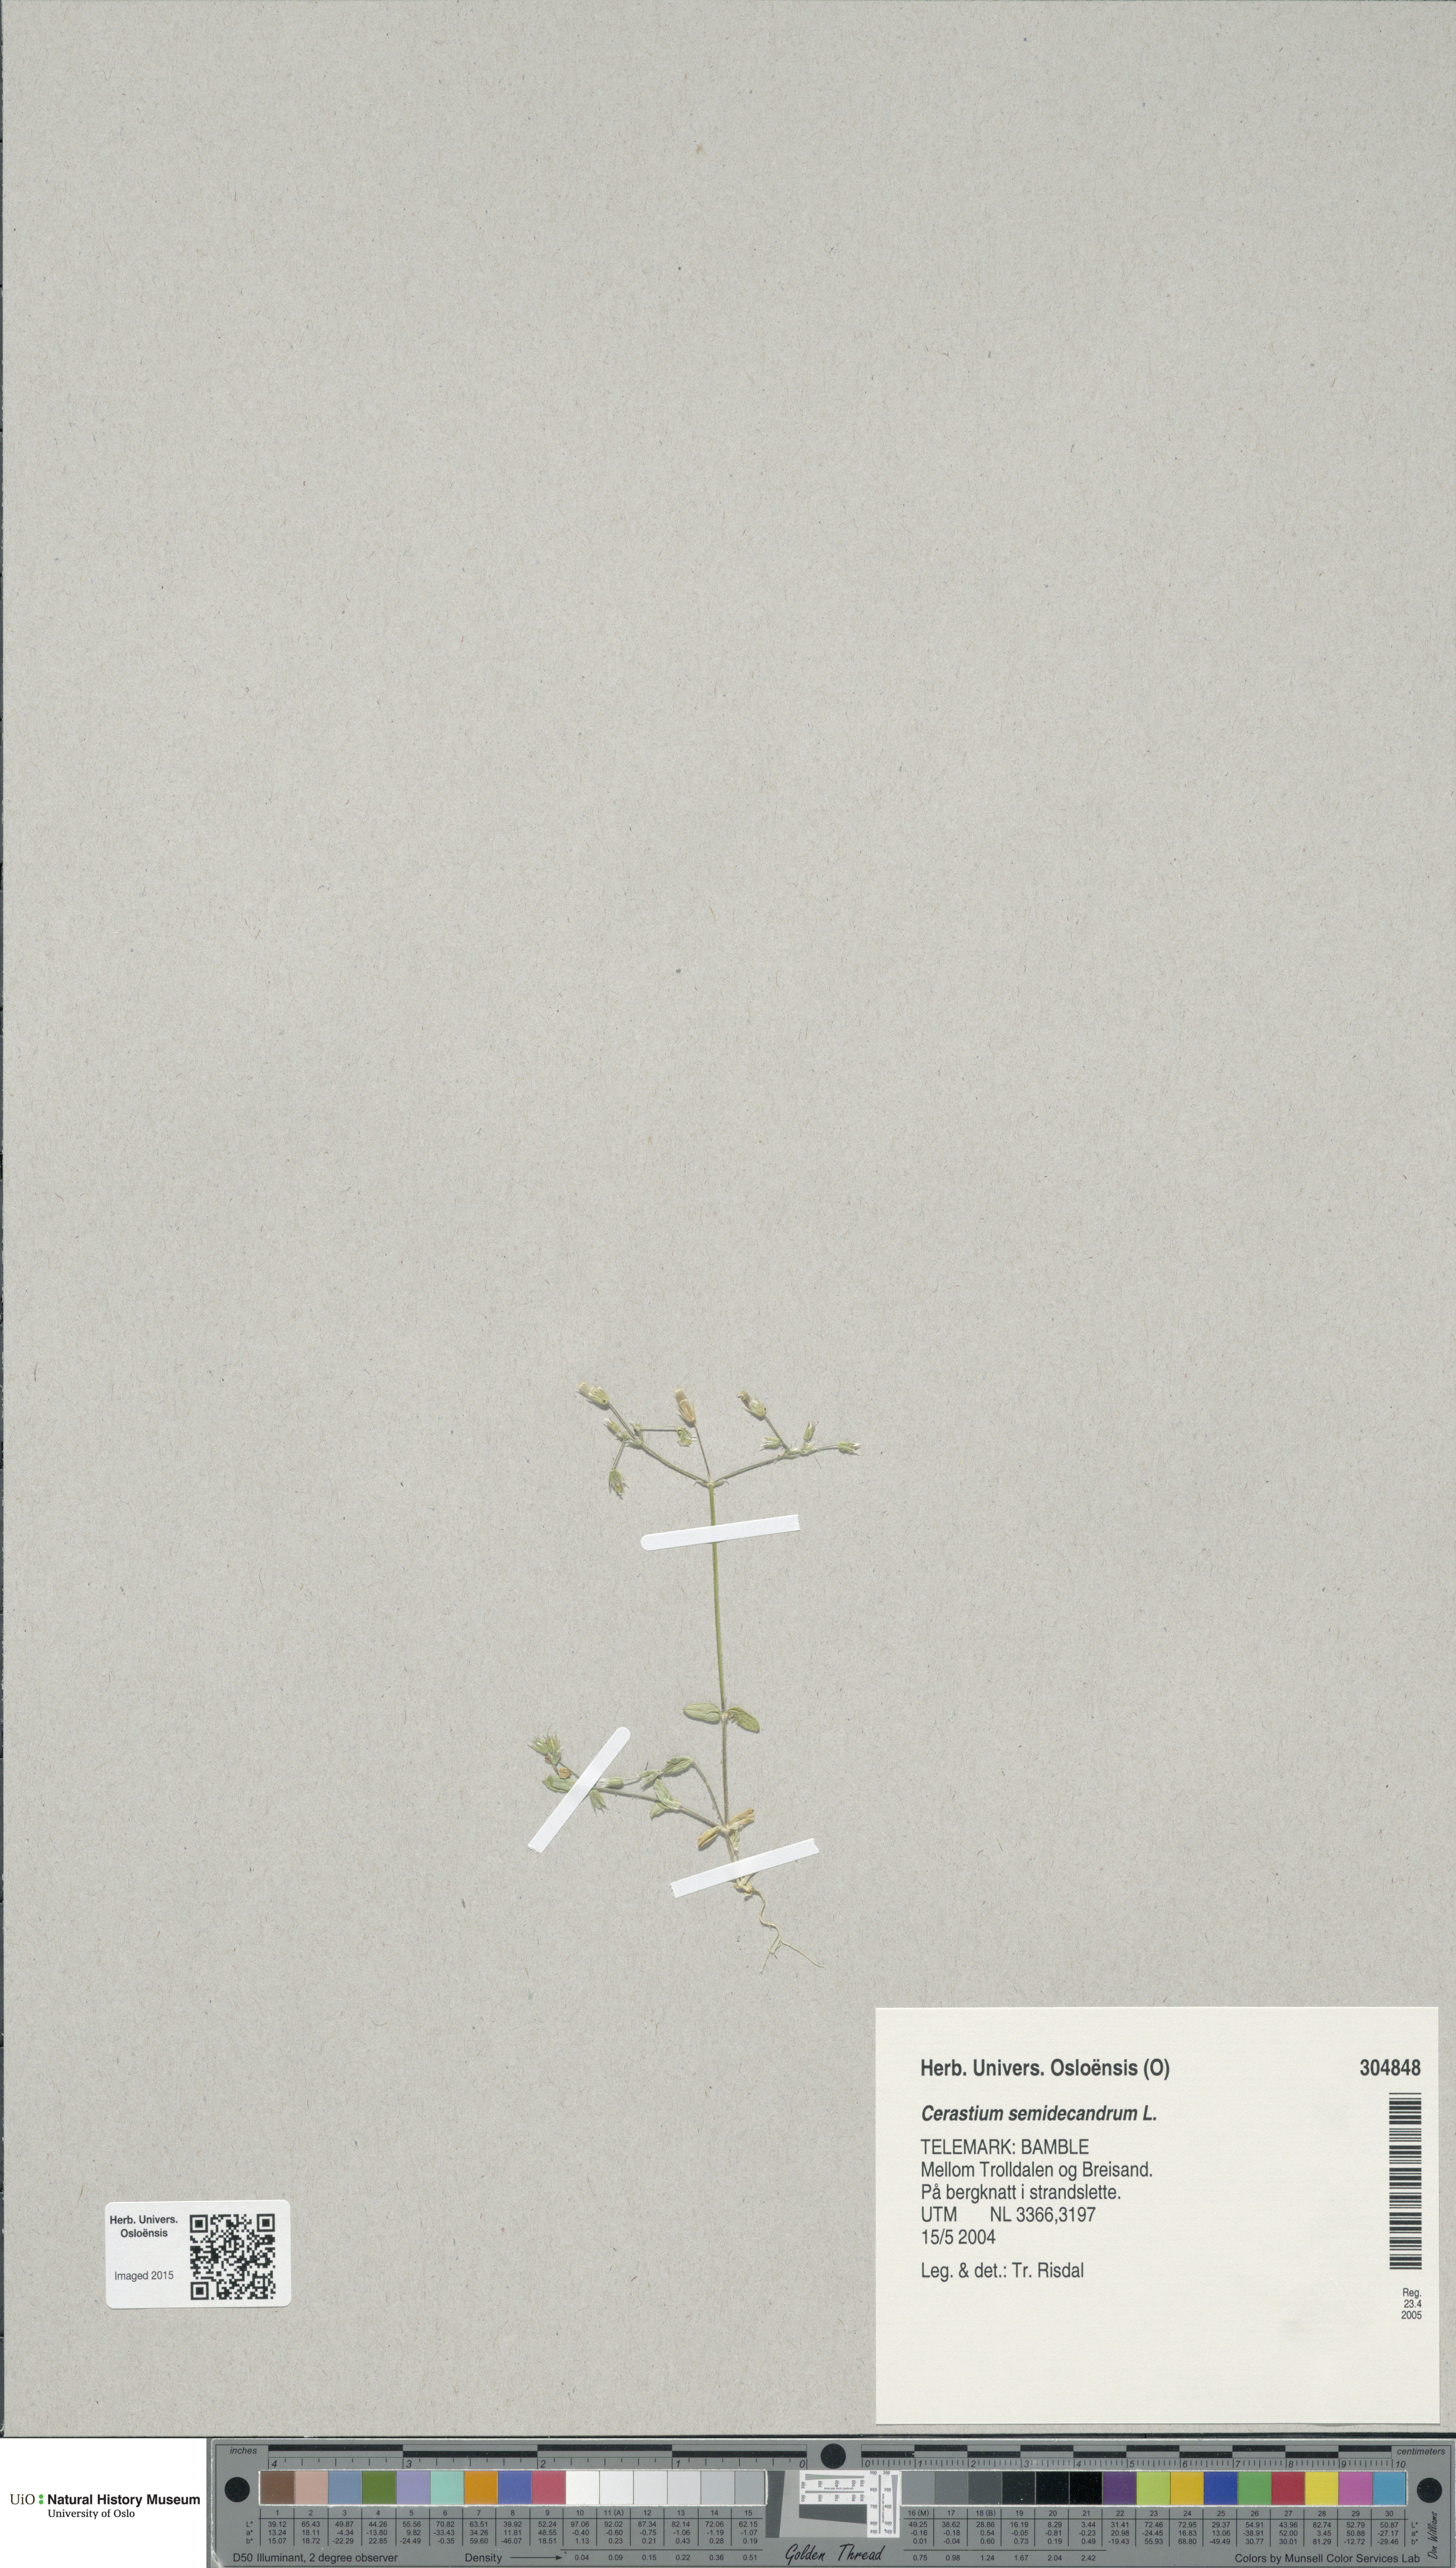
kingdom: Plantae
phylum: Tracheophyta
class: Magnoliopsida
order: Caryophyllales
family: Caryophyllaceae
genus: Cerastium
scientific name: Cerastium semidecandrum
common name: Little mouse-ear
